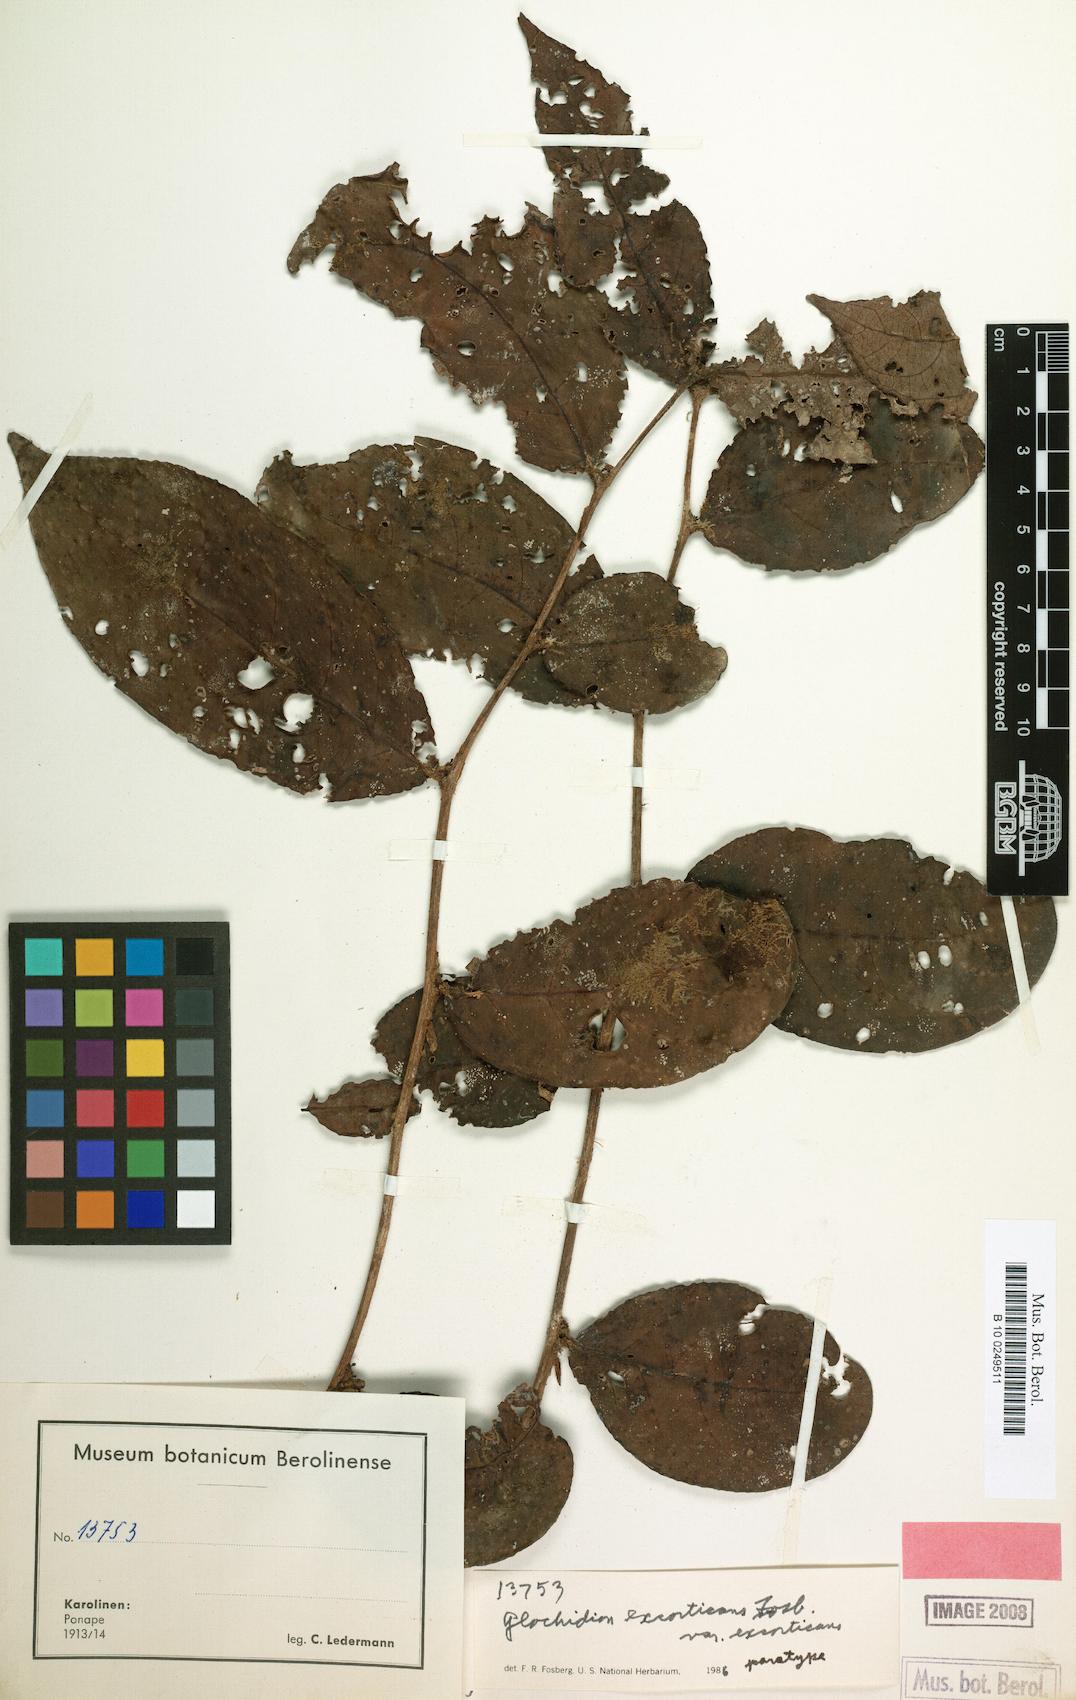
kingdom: Plantae
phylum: Tracheophyta
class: Magnoliopsida
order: Malpighiales
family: Phyllanthaceae
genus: Glochidion
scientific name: Glochidion puberulum
